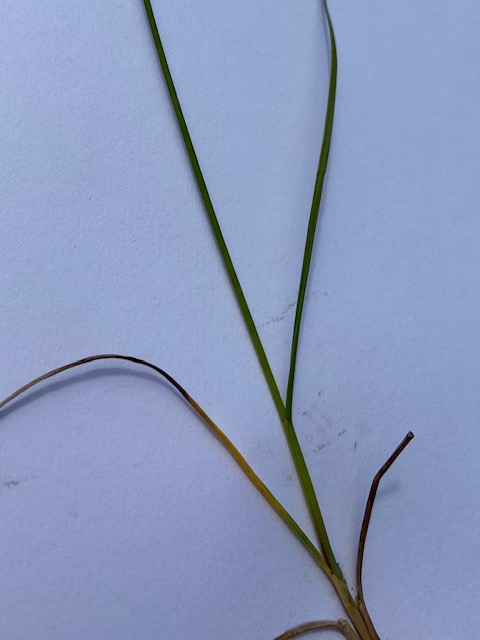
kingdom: Plantae
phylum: Tracheophyta
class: Liliopsida
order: Poales
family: Juncaceae
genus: Juncus
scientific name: Juncus gerardi
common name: Harril
